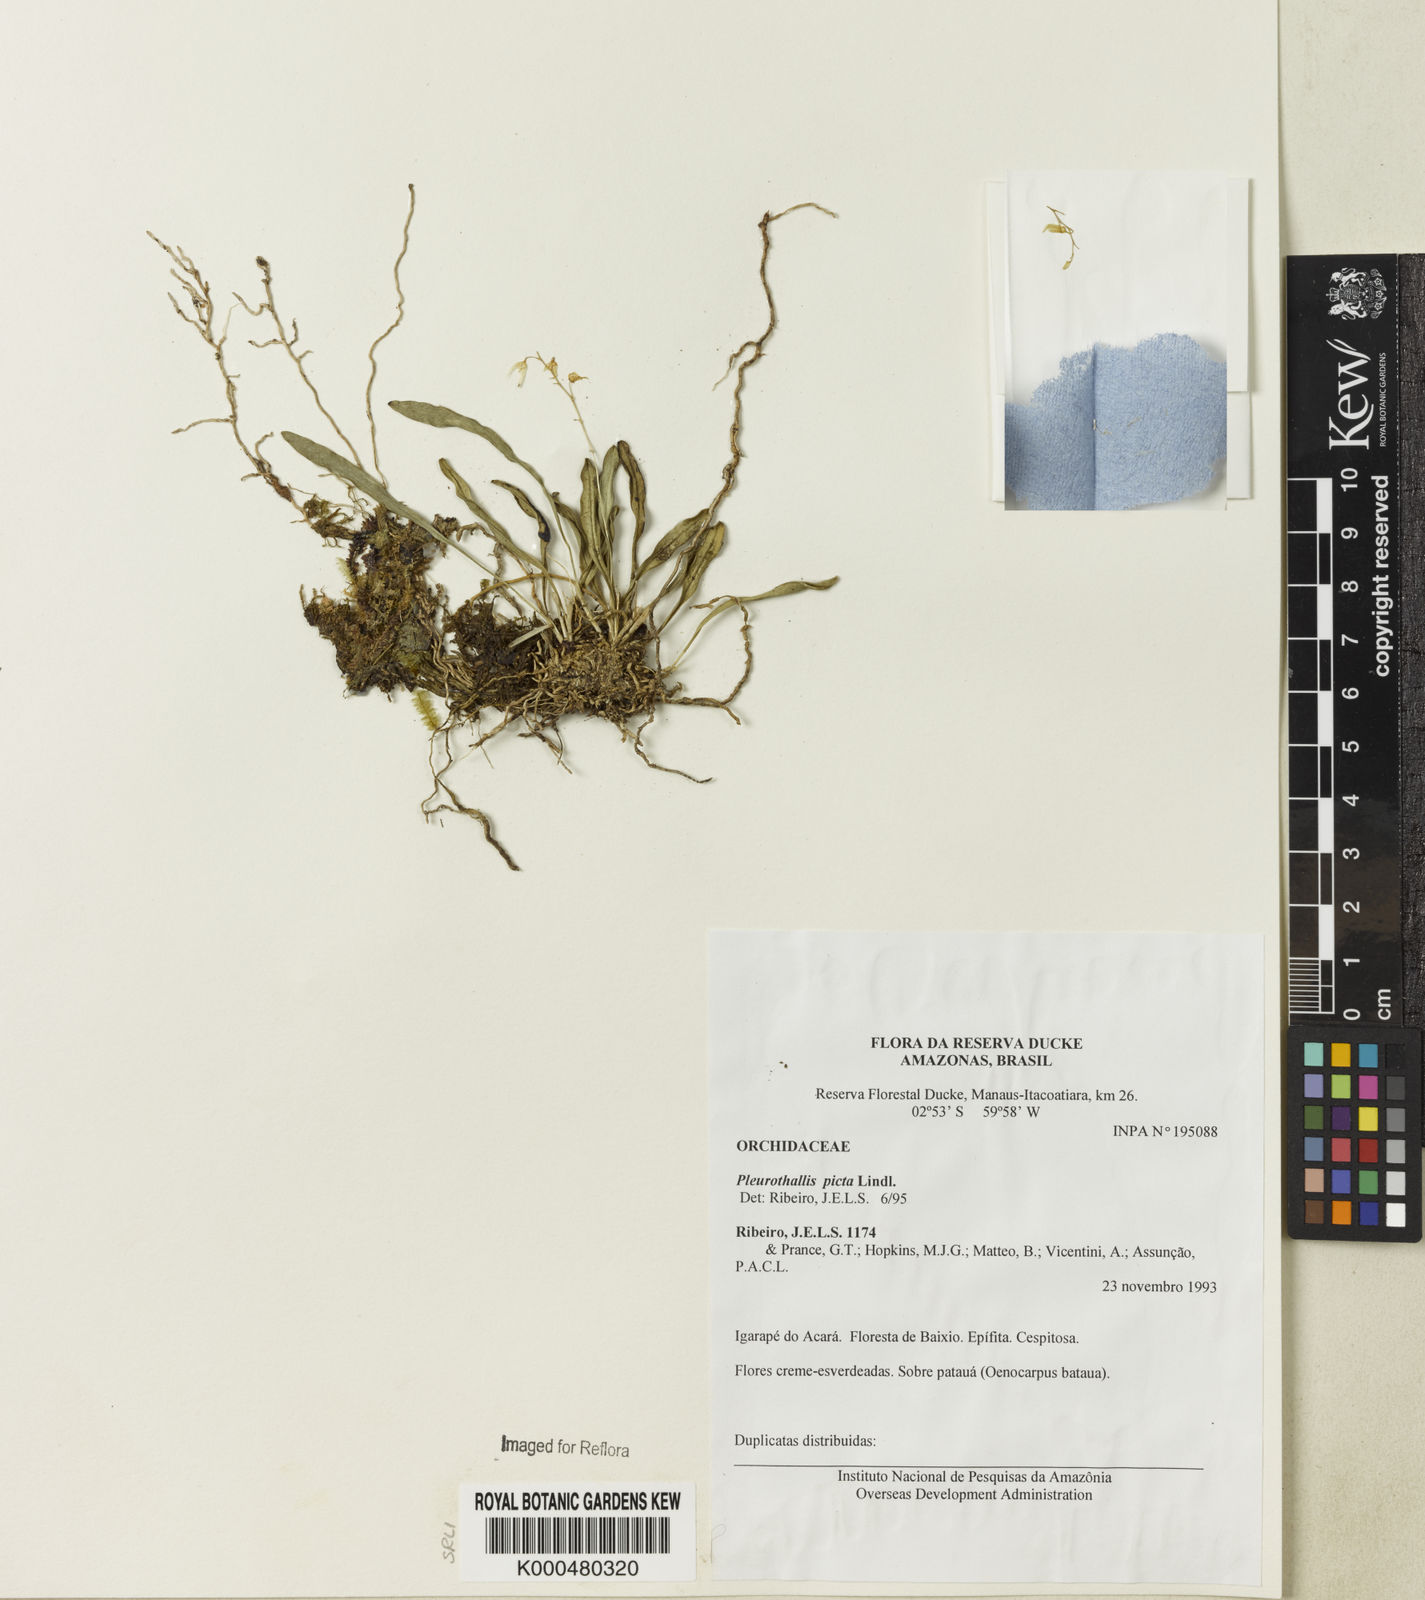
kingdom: Plantae
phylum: Tracheophyta
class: Liliopsida
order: Asparagales
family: Orchidaceae
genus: Specklinia
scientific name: Specklinia picta
